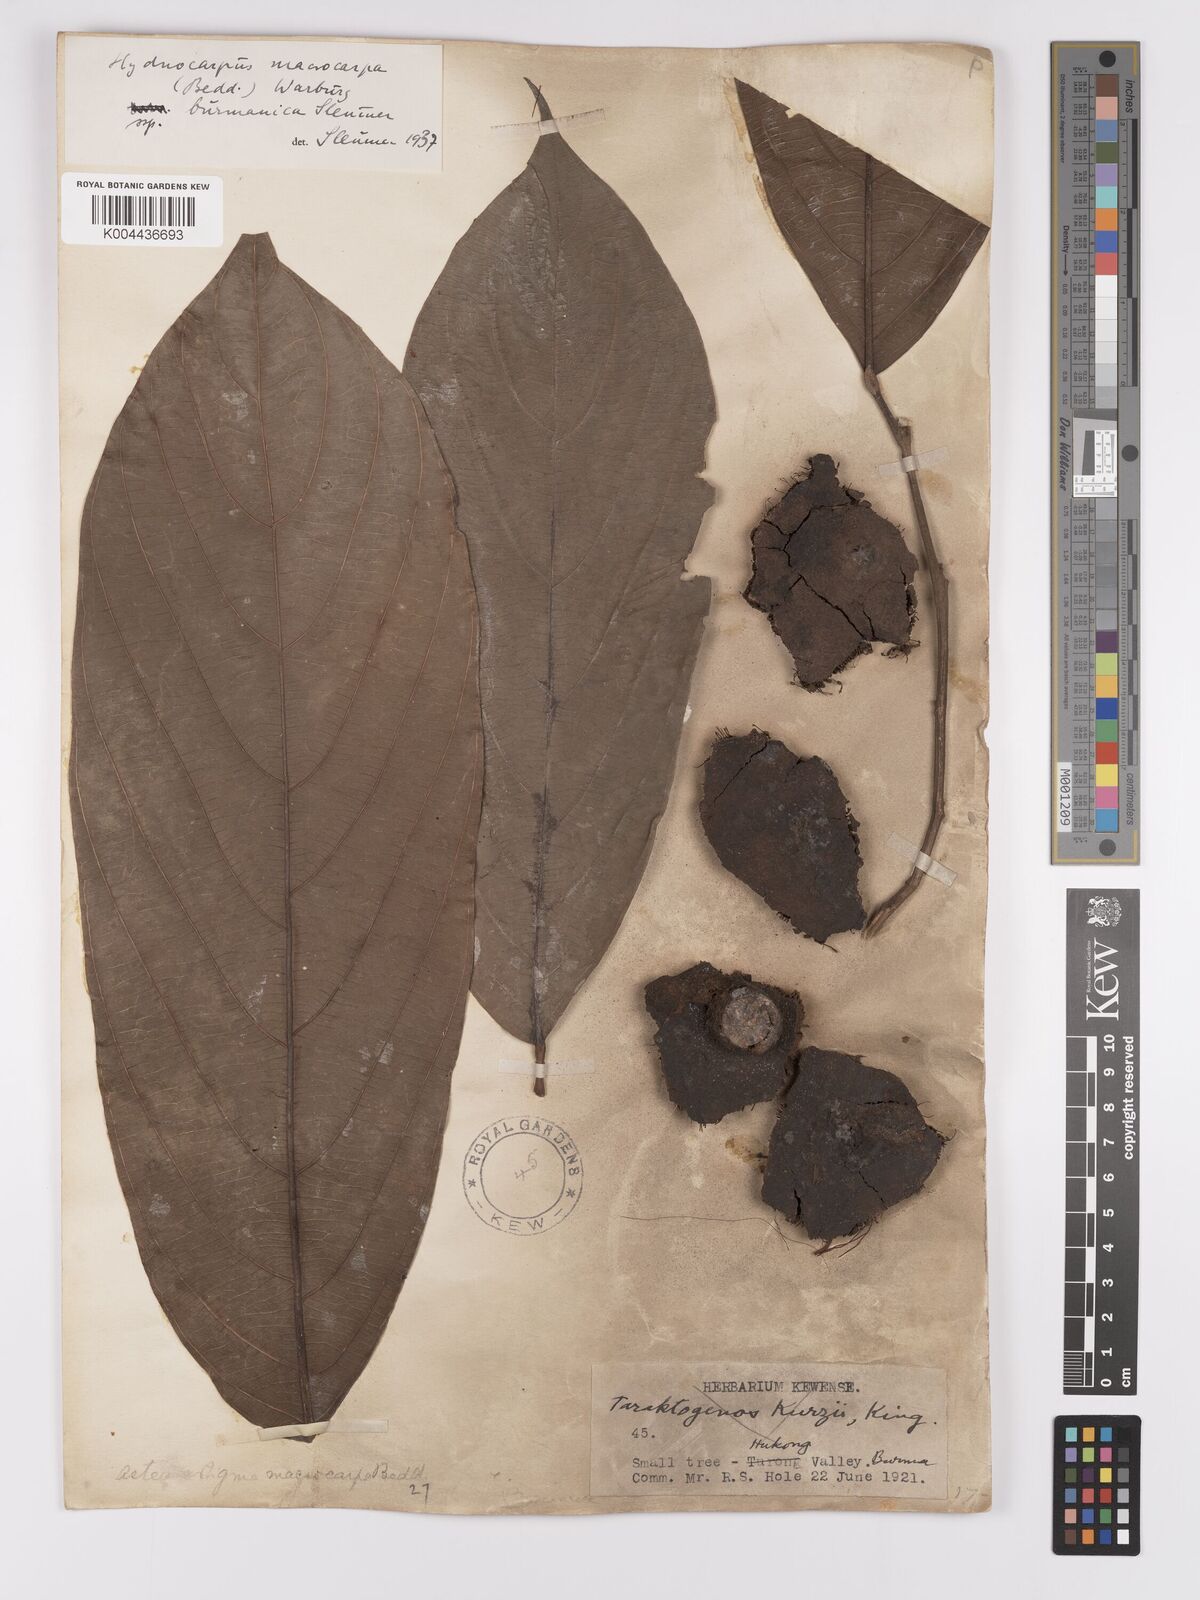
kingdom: Plantae
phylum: Tracheophyta
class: Magnoliopsida
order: Malpighiales
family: Achariaceae
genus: Hydnocarpus
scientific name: Hydnocarpus macrocarpus
